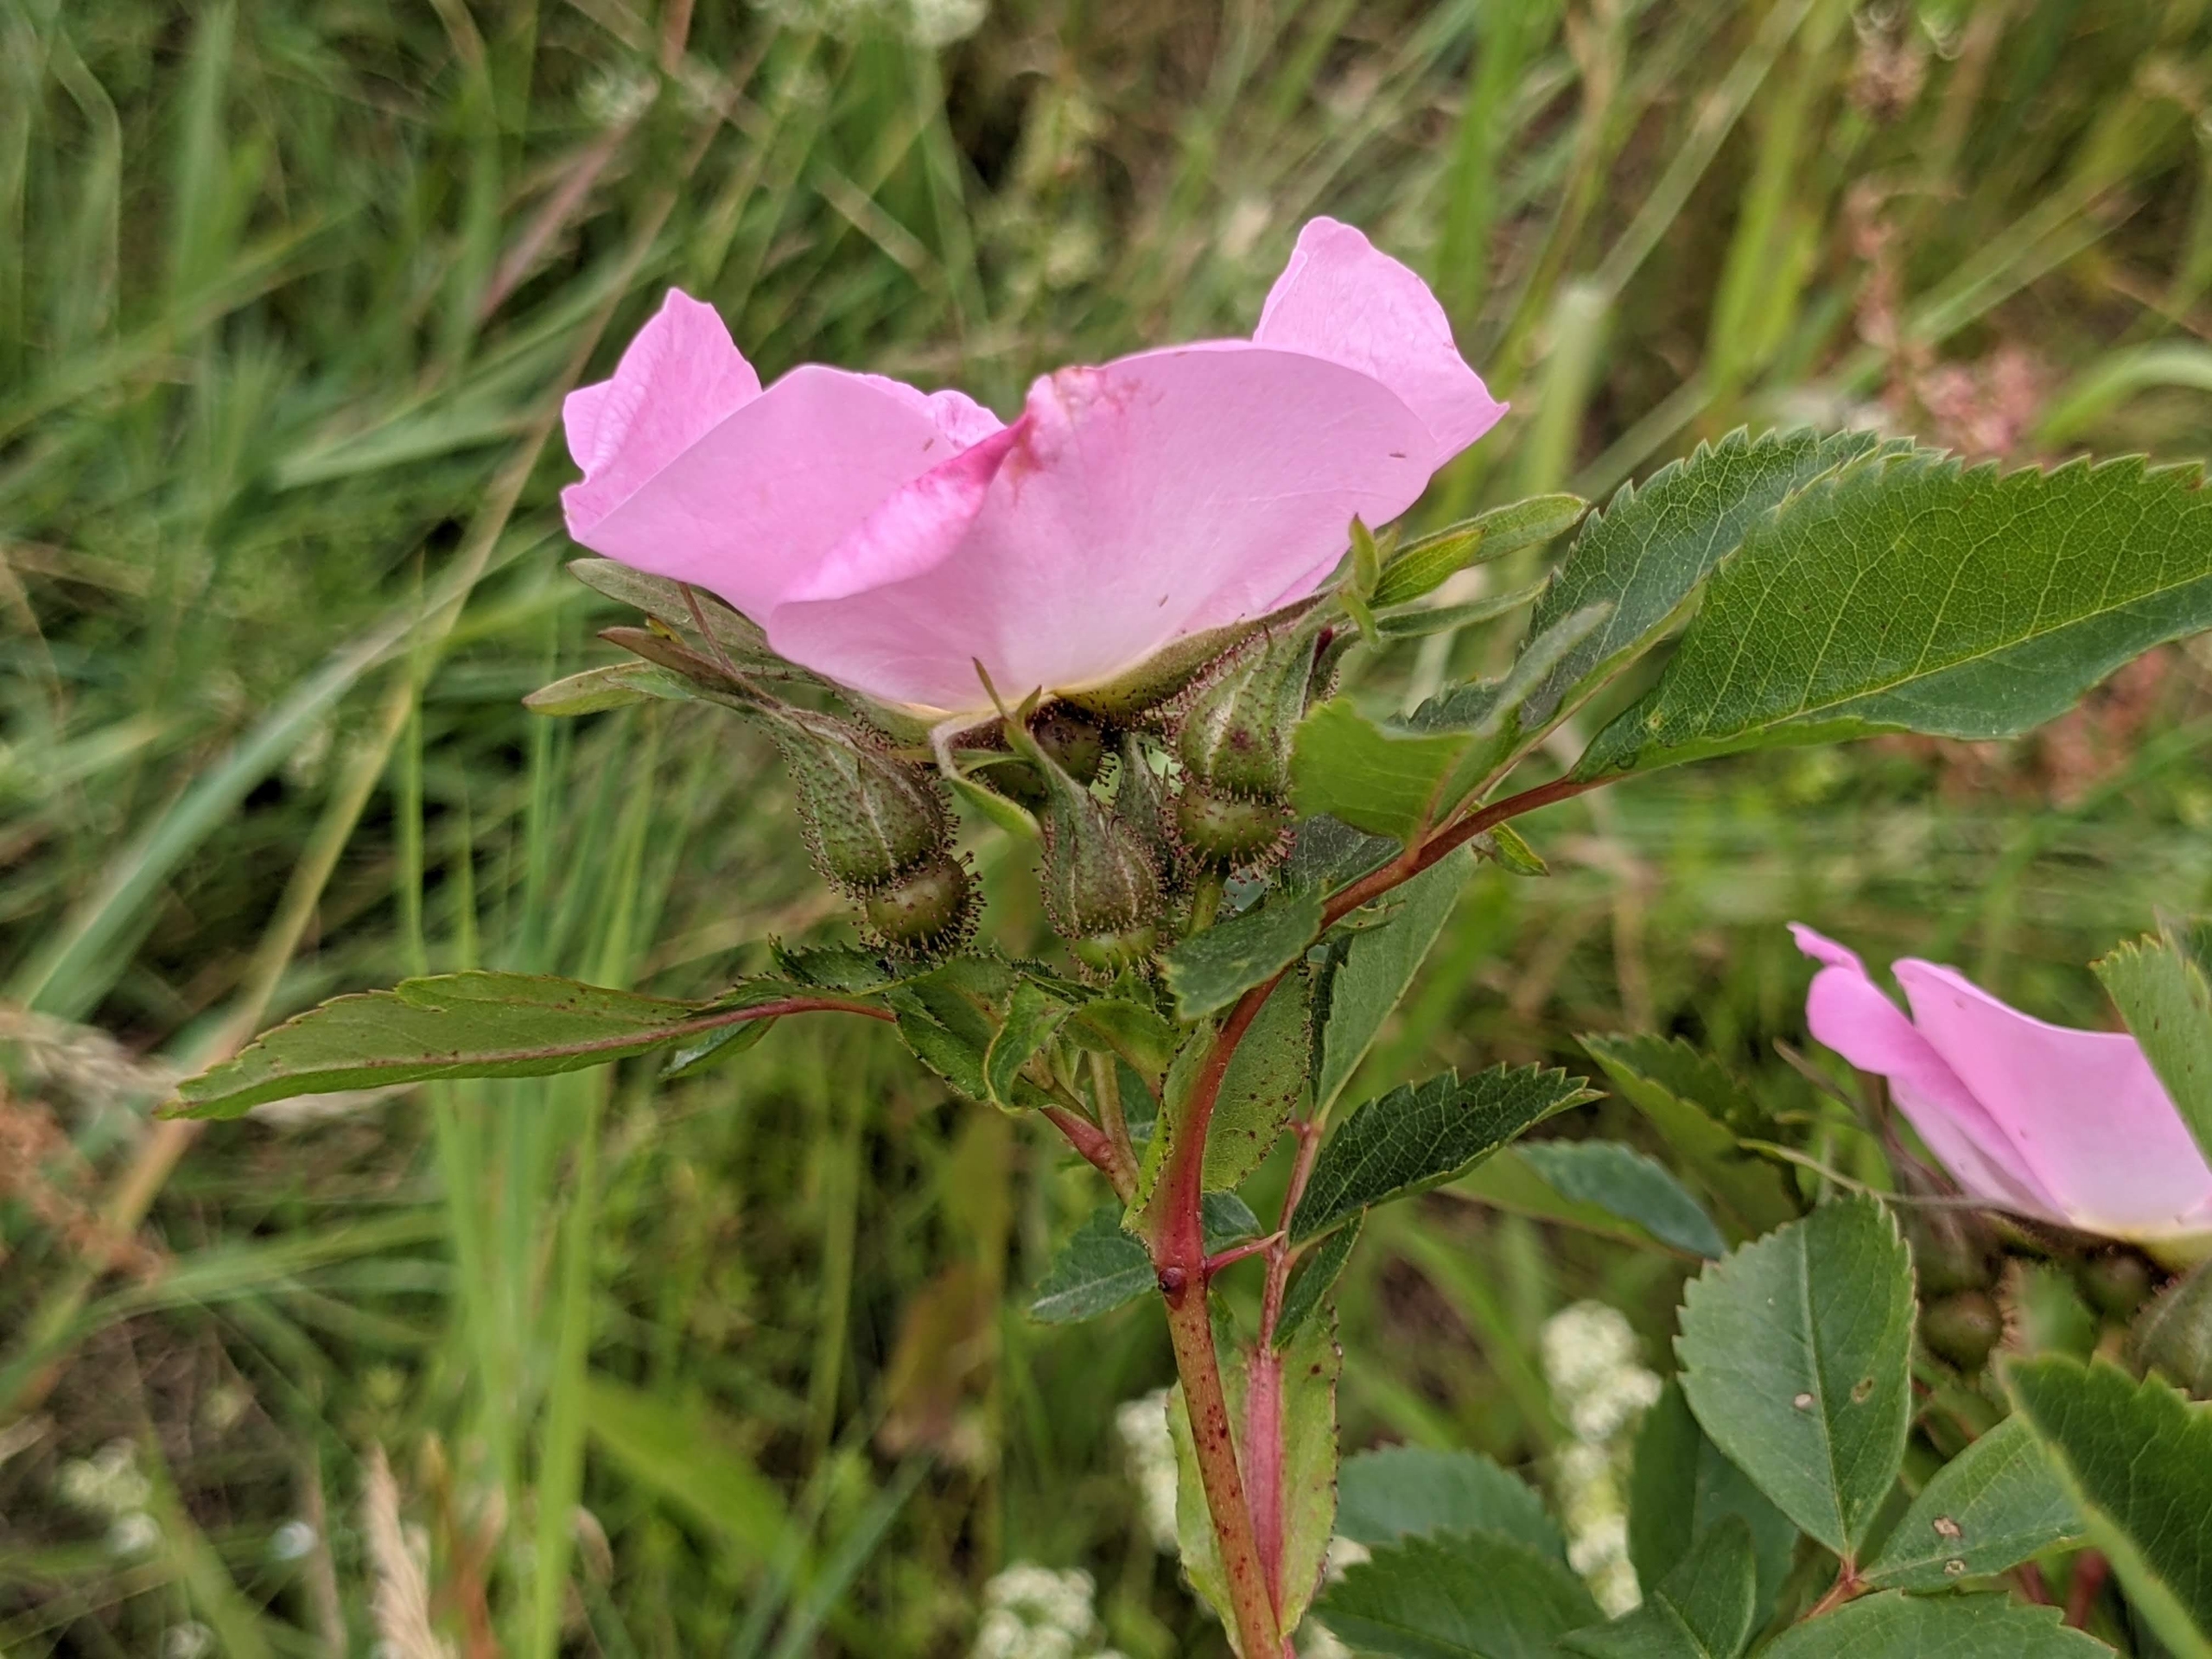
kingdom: Plantae
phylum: Tracheophyta
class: Magnoliopsida
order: Rosales
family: Rosaceae
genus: Rosa
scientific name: Rosa carolina
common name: Glansbladet rose
